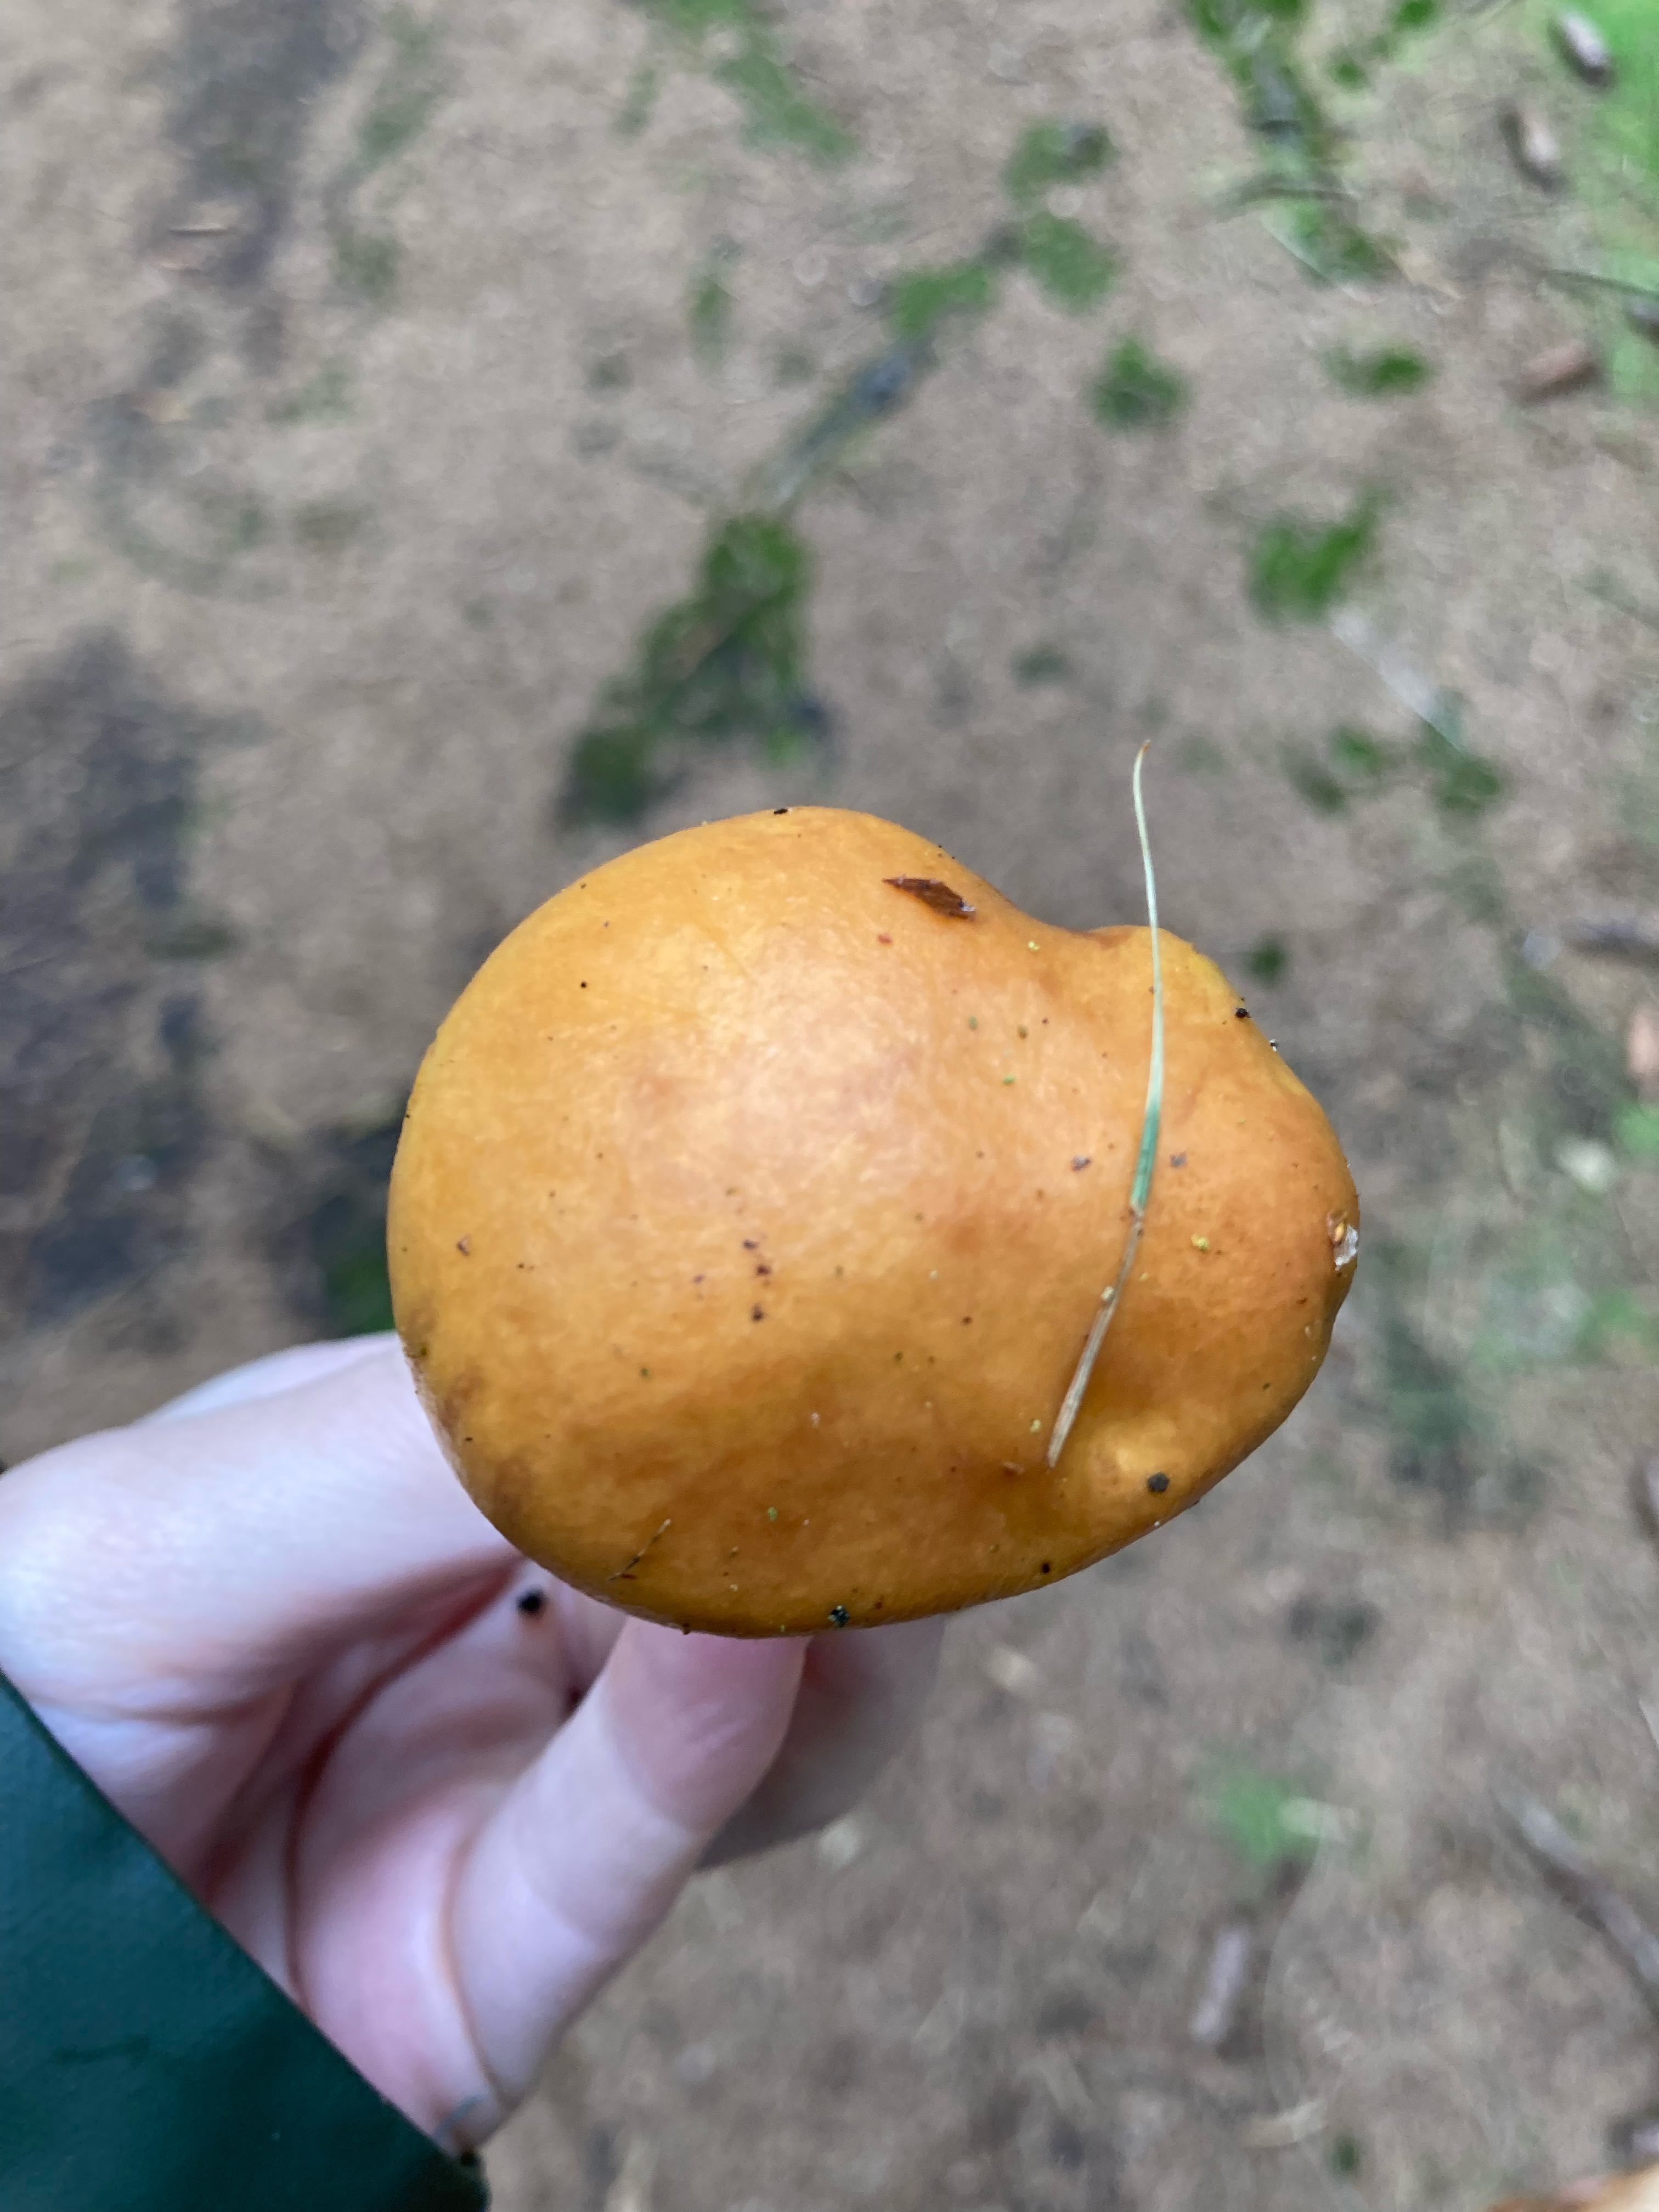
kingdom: Fungi
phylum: Basidiomycota
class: Agaricomycetes
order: Boletales
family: Suillaceae
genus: Suillus
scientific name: Suillus grevillei
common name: lærke-slimrørhat
